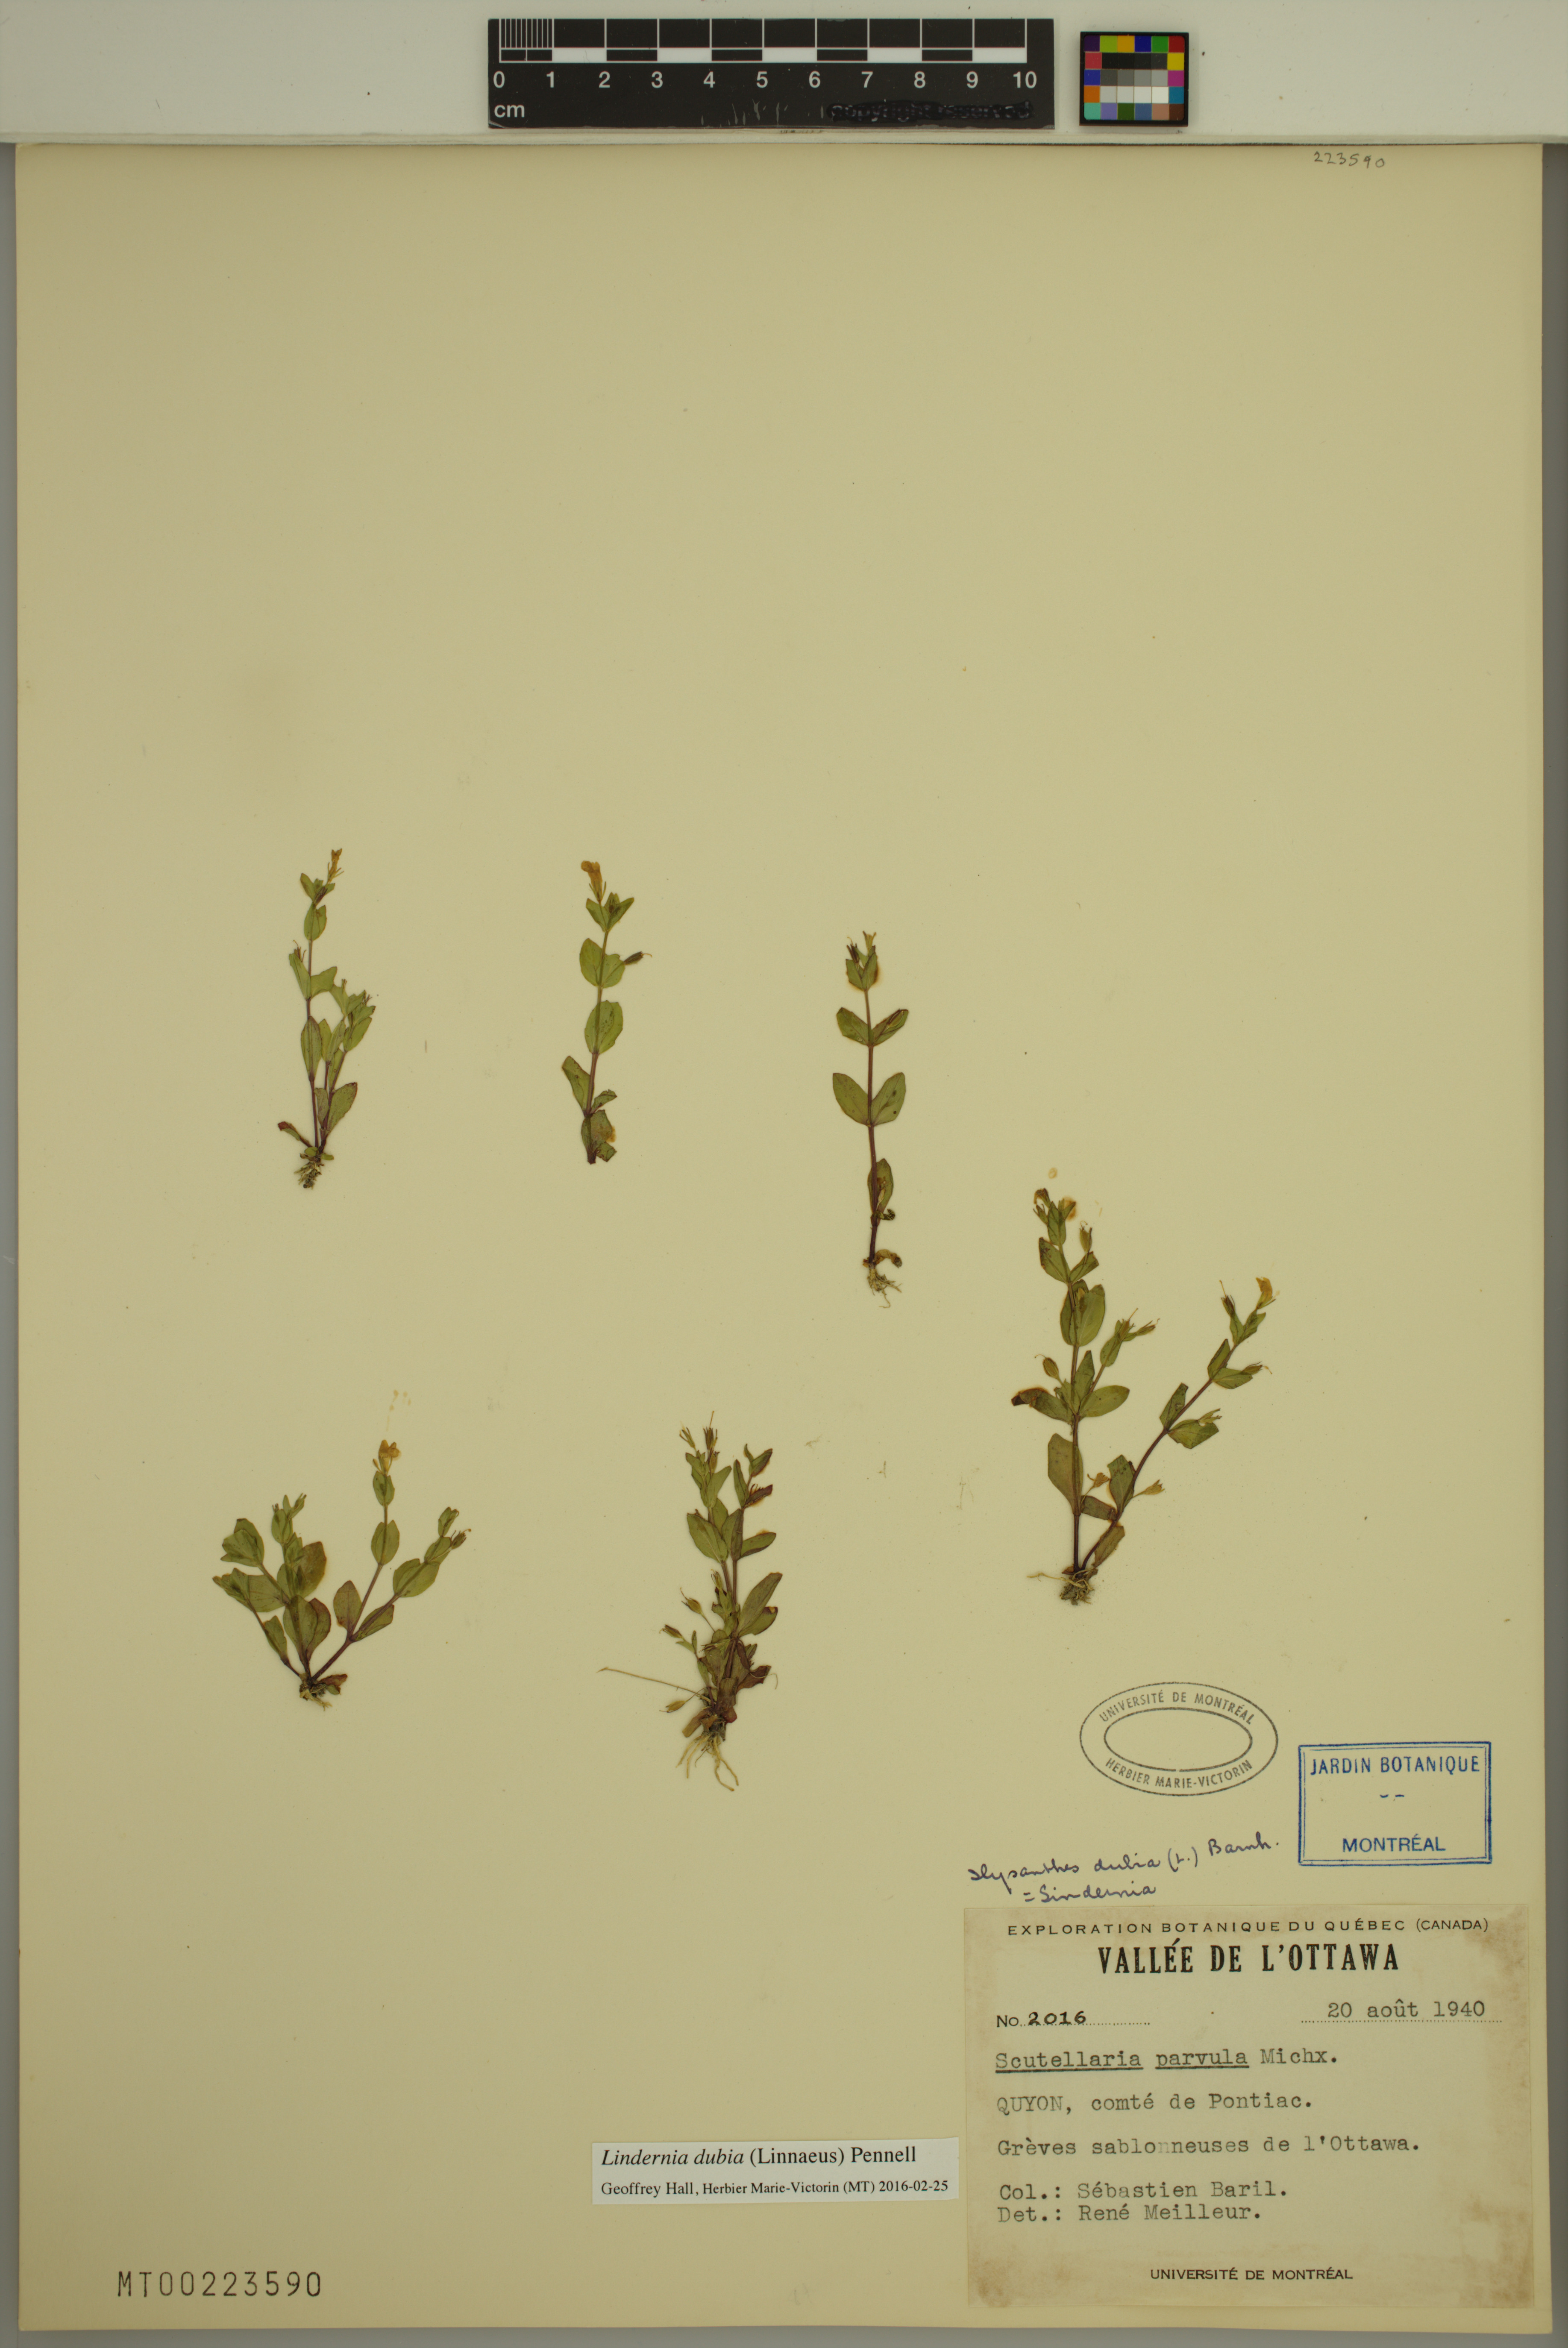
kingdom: Plantae
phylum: Tracheophyta
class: Magnoliopsida
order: Lamiales
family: Linderniaceae
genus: Lindernia
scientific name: Lindernia dubia
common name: Annual false pimpernel
